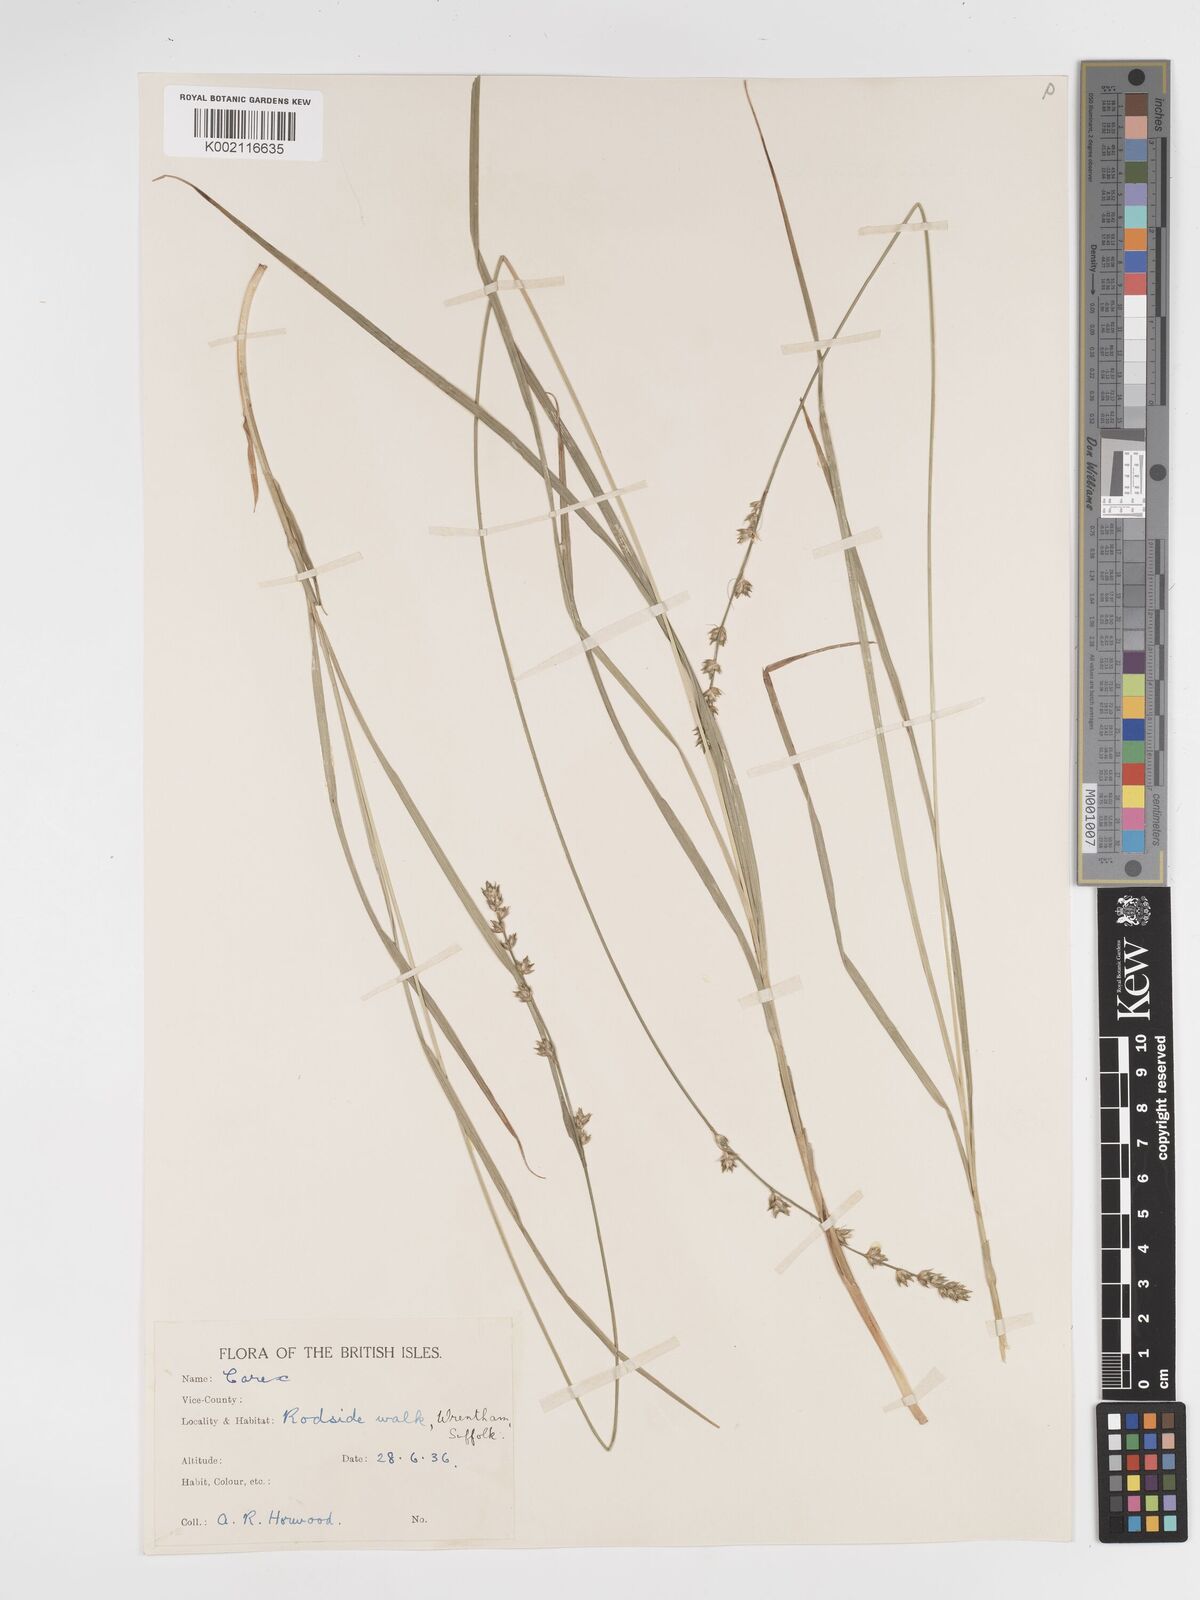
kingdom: Plantae
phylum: Tracheophyta
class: Liliopsida
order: Poales
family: Cyperaceae
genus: Carex
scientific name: Carex divulsa
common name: Grassland sedge
